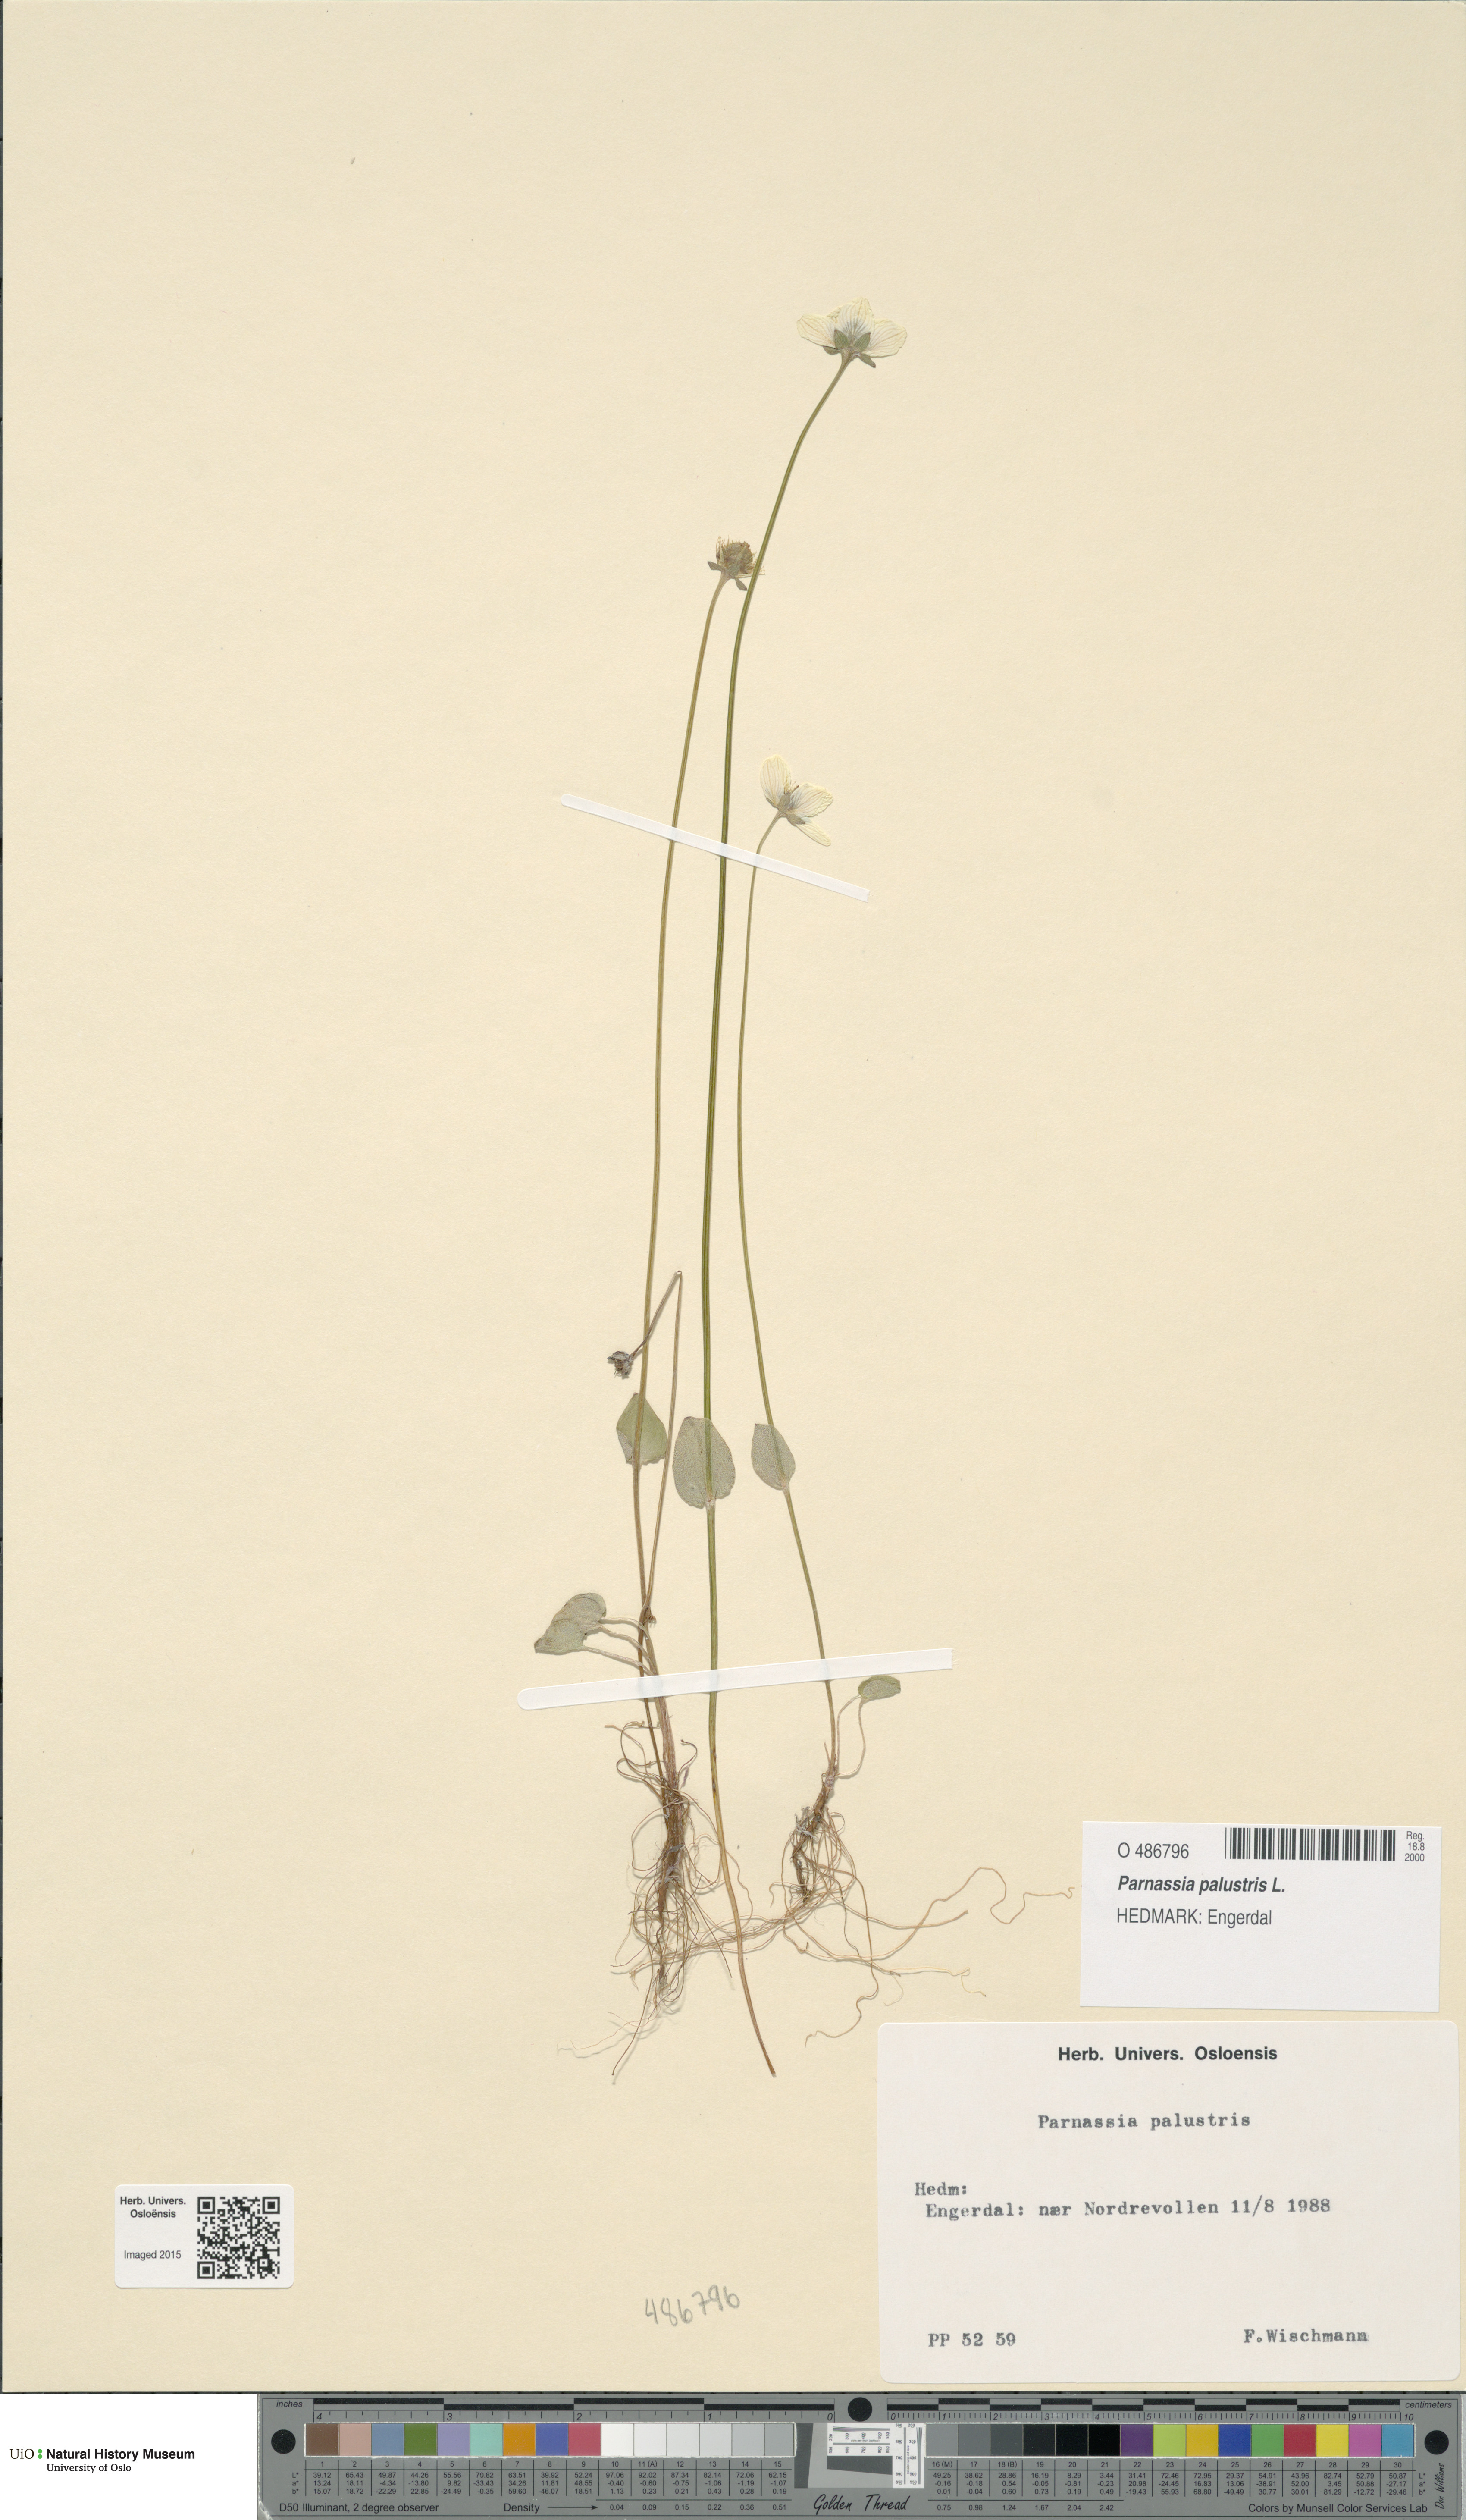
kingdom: Plantae
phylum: Tracheophyta
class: Magnoliopsida
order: Celastrales
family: Parnassiaceae
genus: Parnassia
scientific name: Parnassia palustris
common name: Grass-of-parnassus
